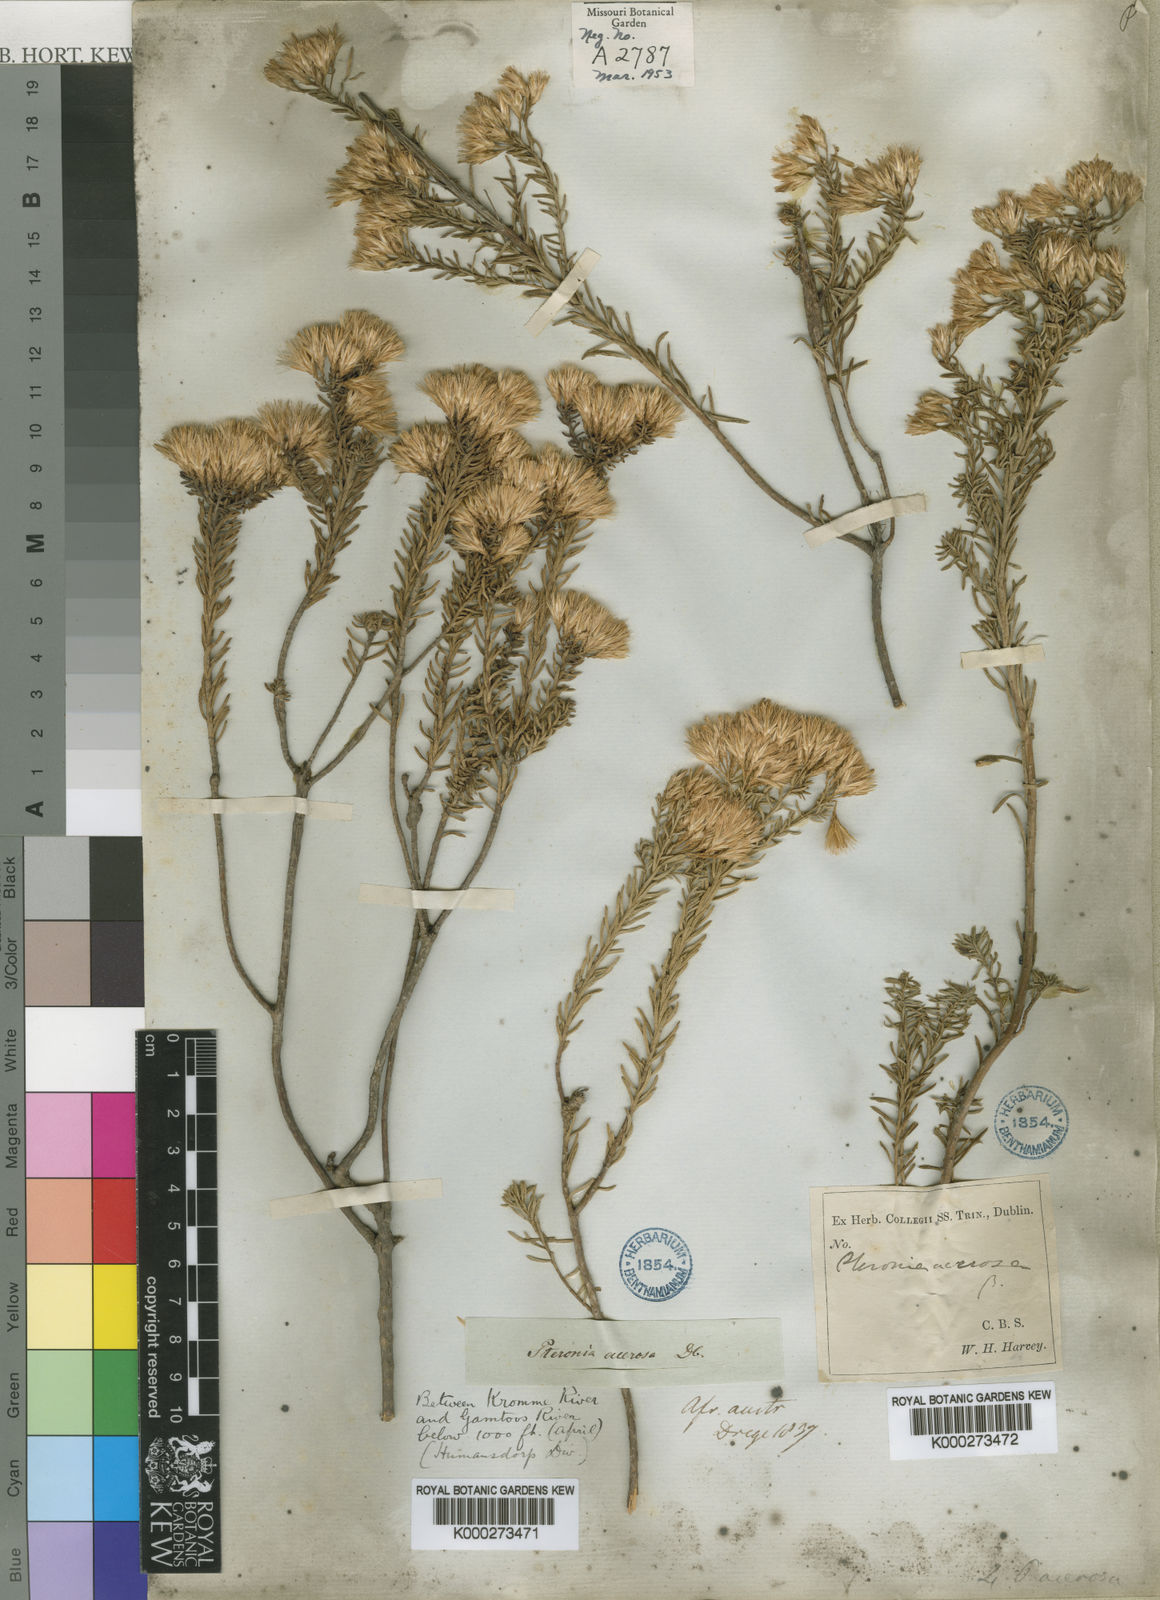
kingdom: Plantae
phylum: Tracheophyta
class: Magnoliopsida
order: Asterales
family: Asteraceae
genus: Pteronia
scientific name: Pteronia teretifolia
